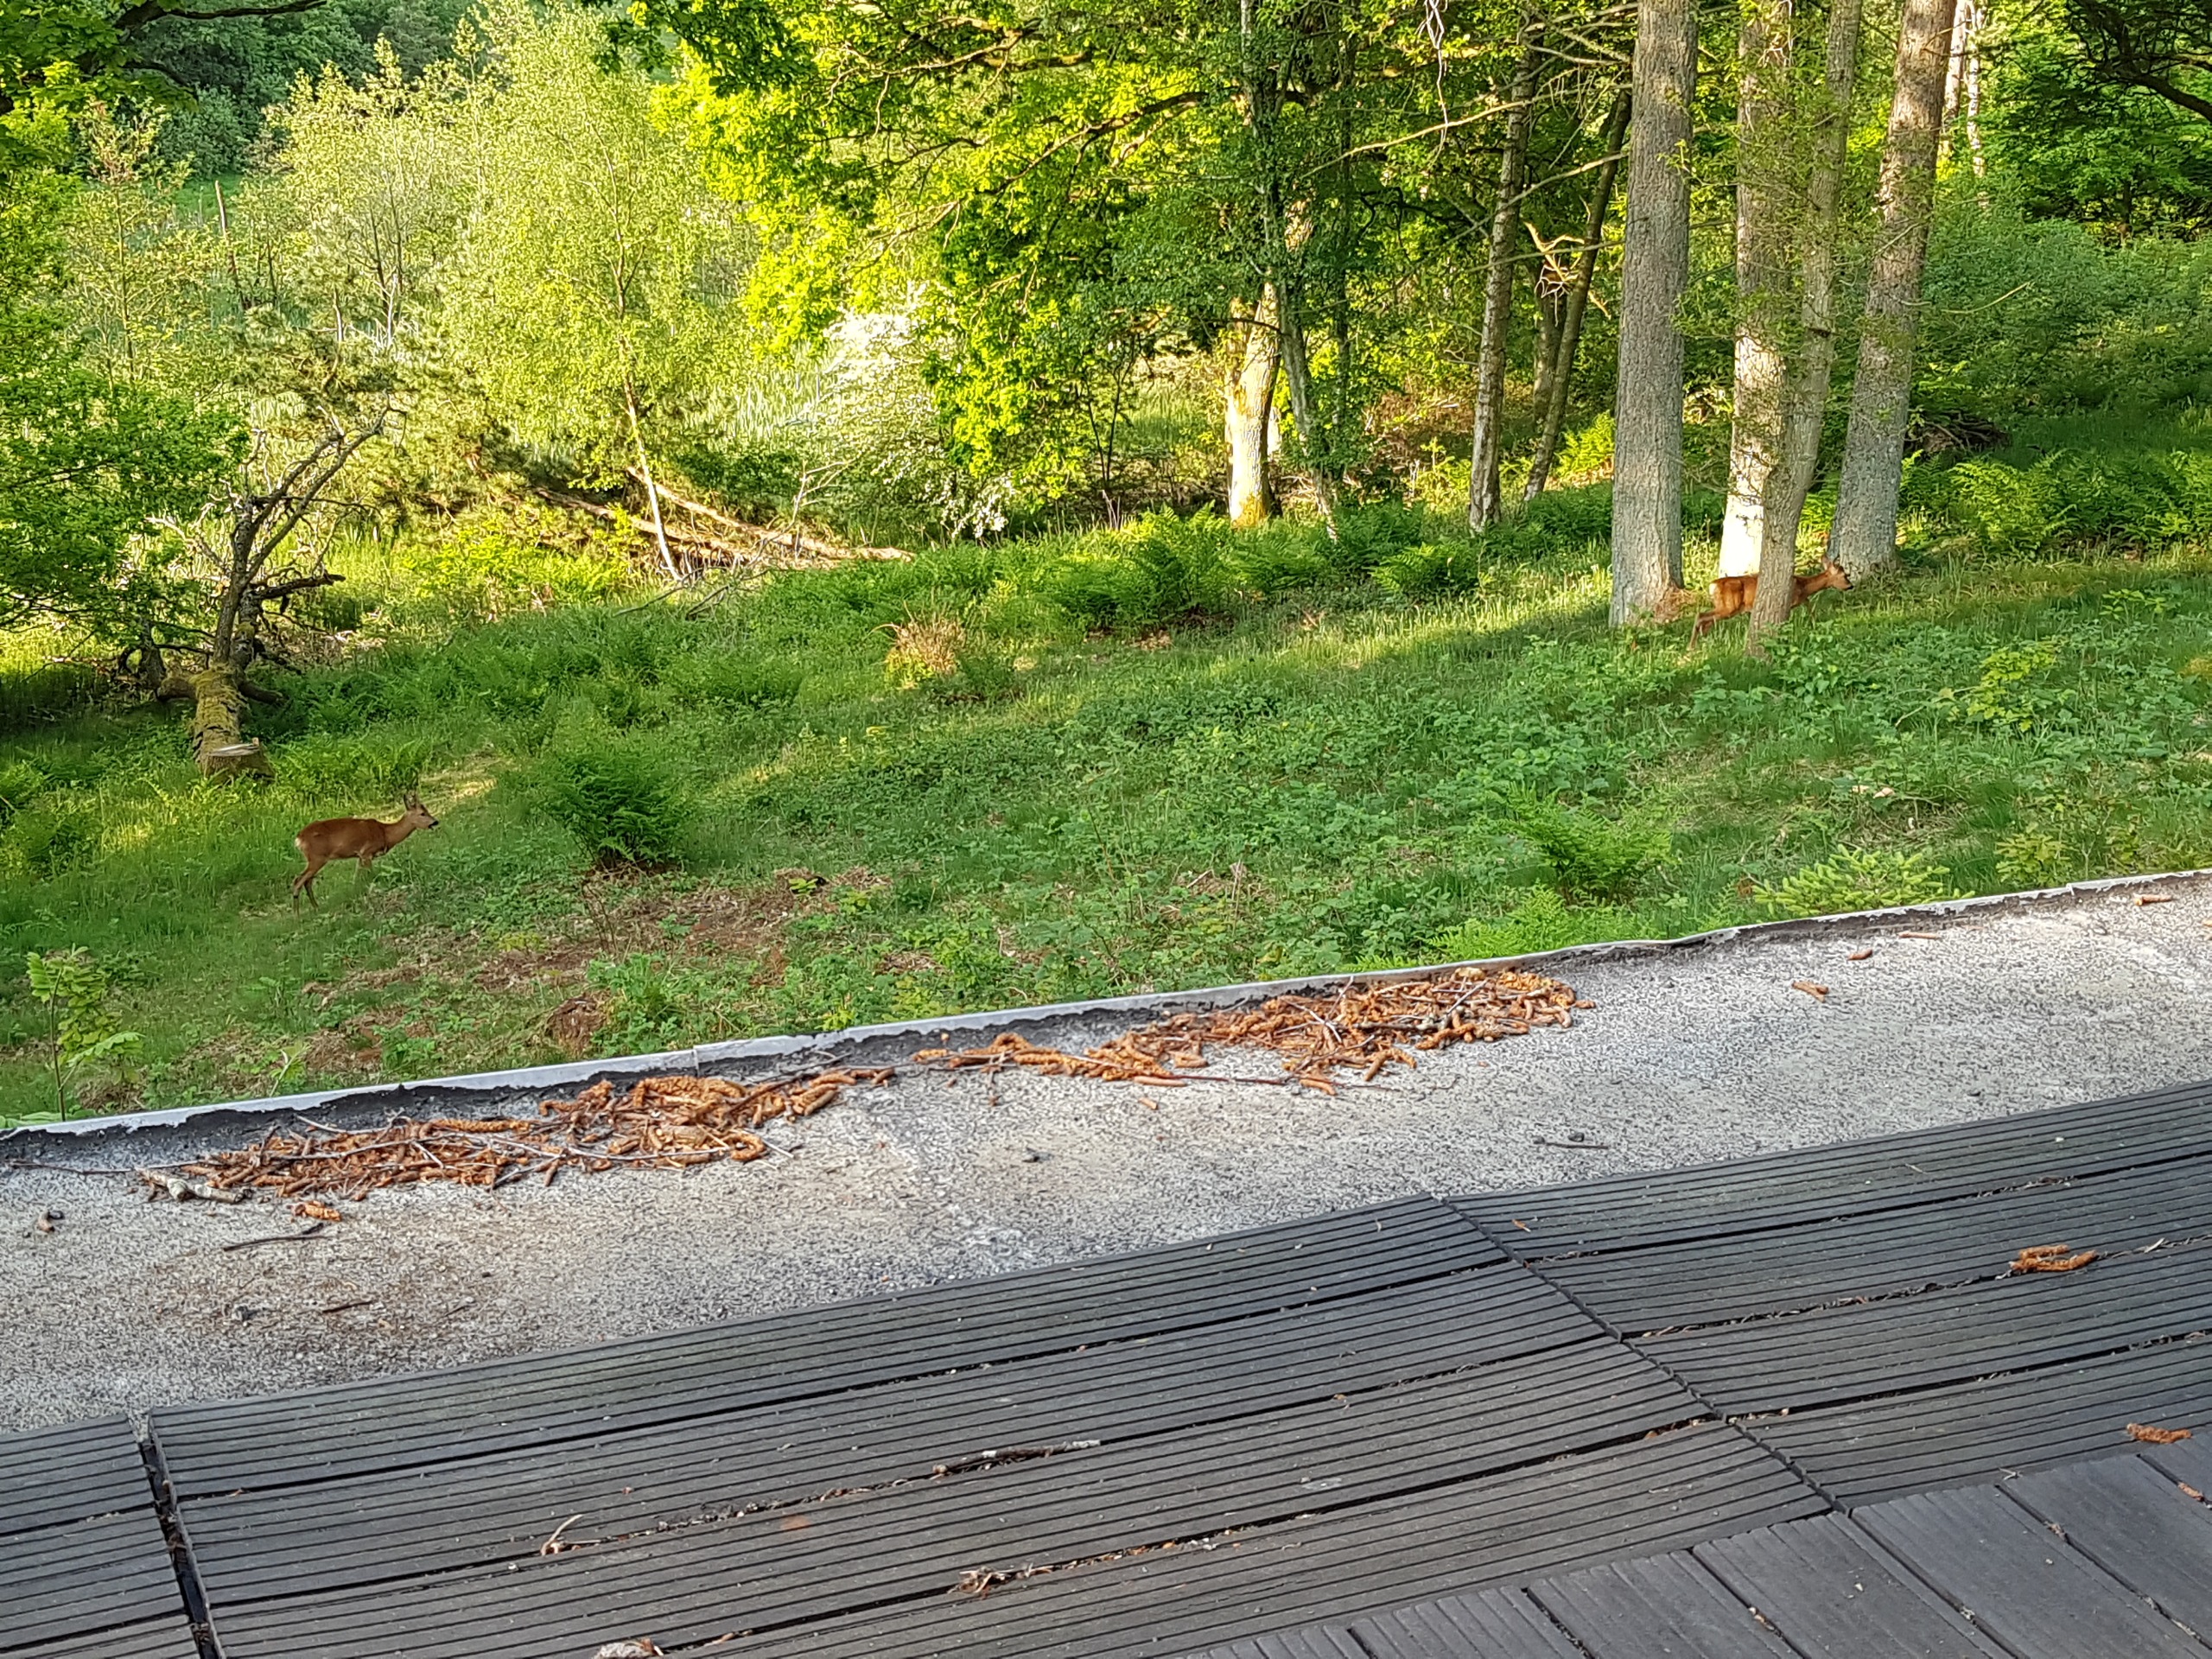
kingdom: Animalia
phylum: Chordata
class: Mammalia
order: Artiodactyla
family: Cervidae
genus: Capreolus
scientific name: Capreolus capreolus
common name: Rådyr
